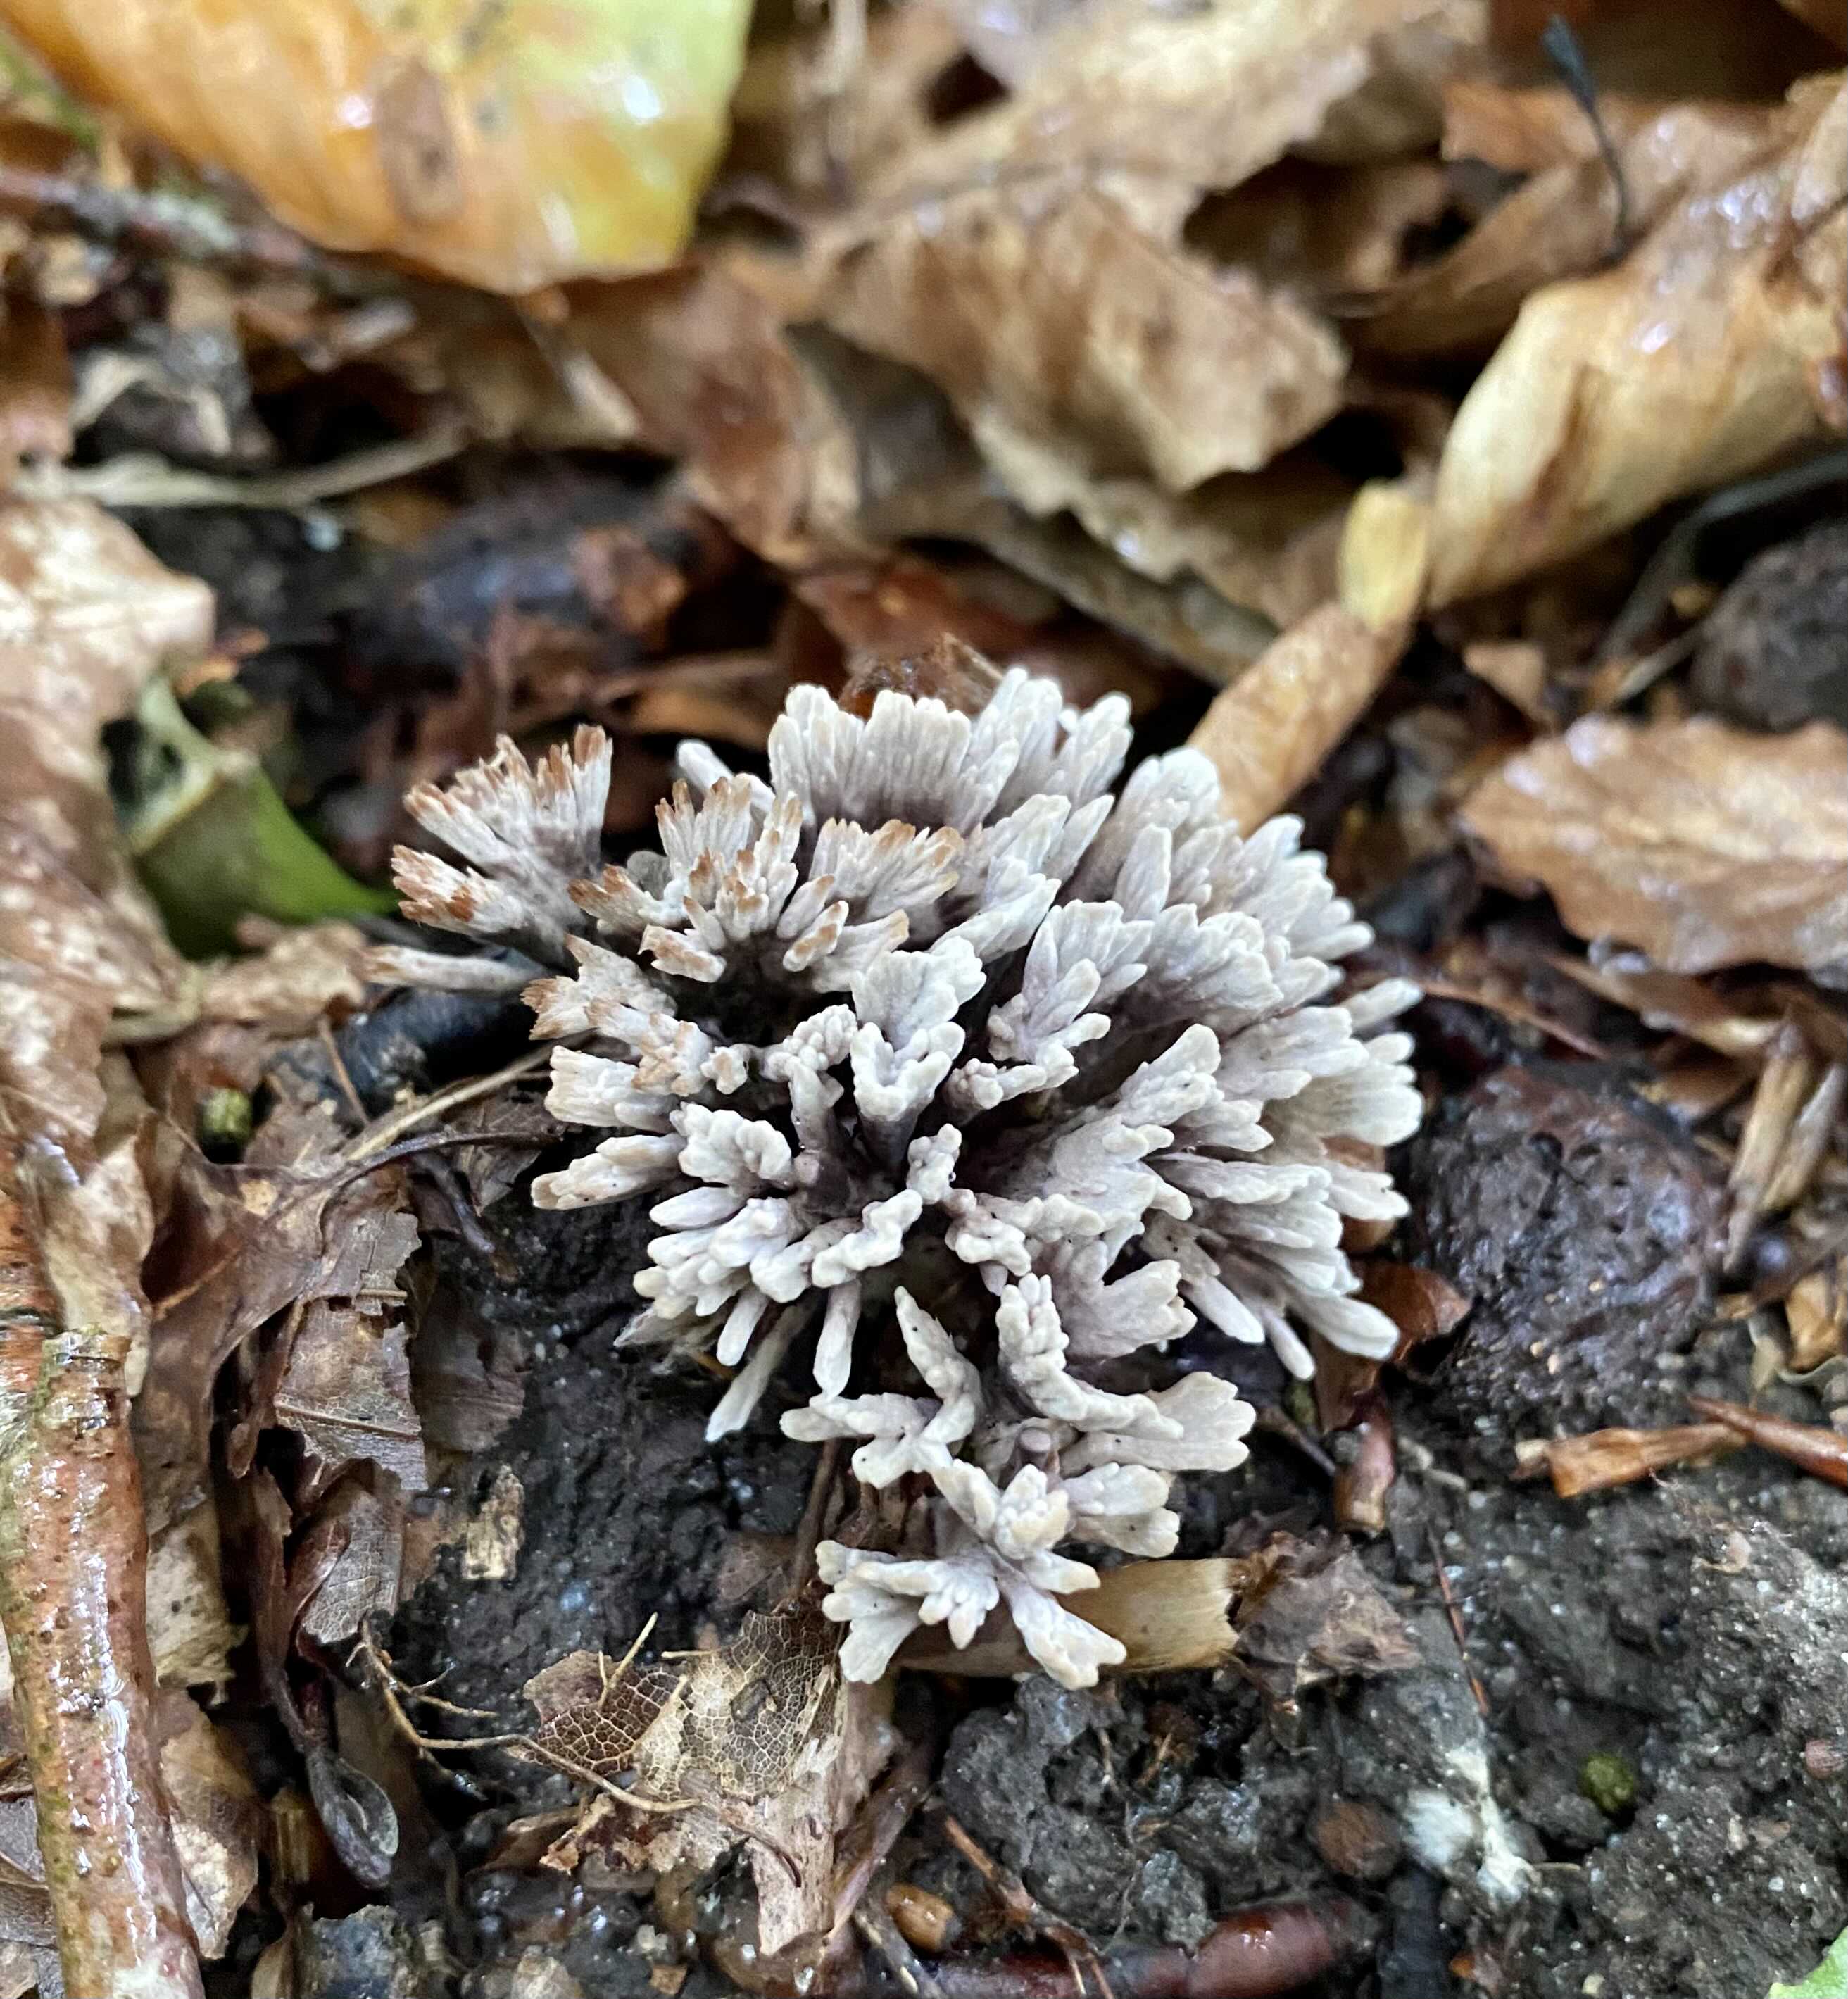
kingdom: Fungi
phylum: Basidiomycota
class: Agaricomycetes
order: Thelephorales
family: Thelephoraceae
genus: Thelephora
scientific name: Thelephora anthocephala
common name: busk-frynsesvamp
